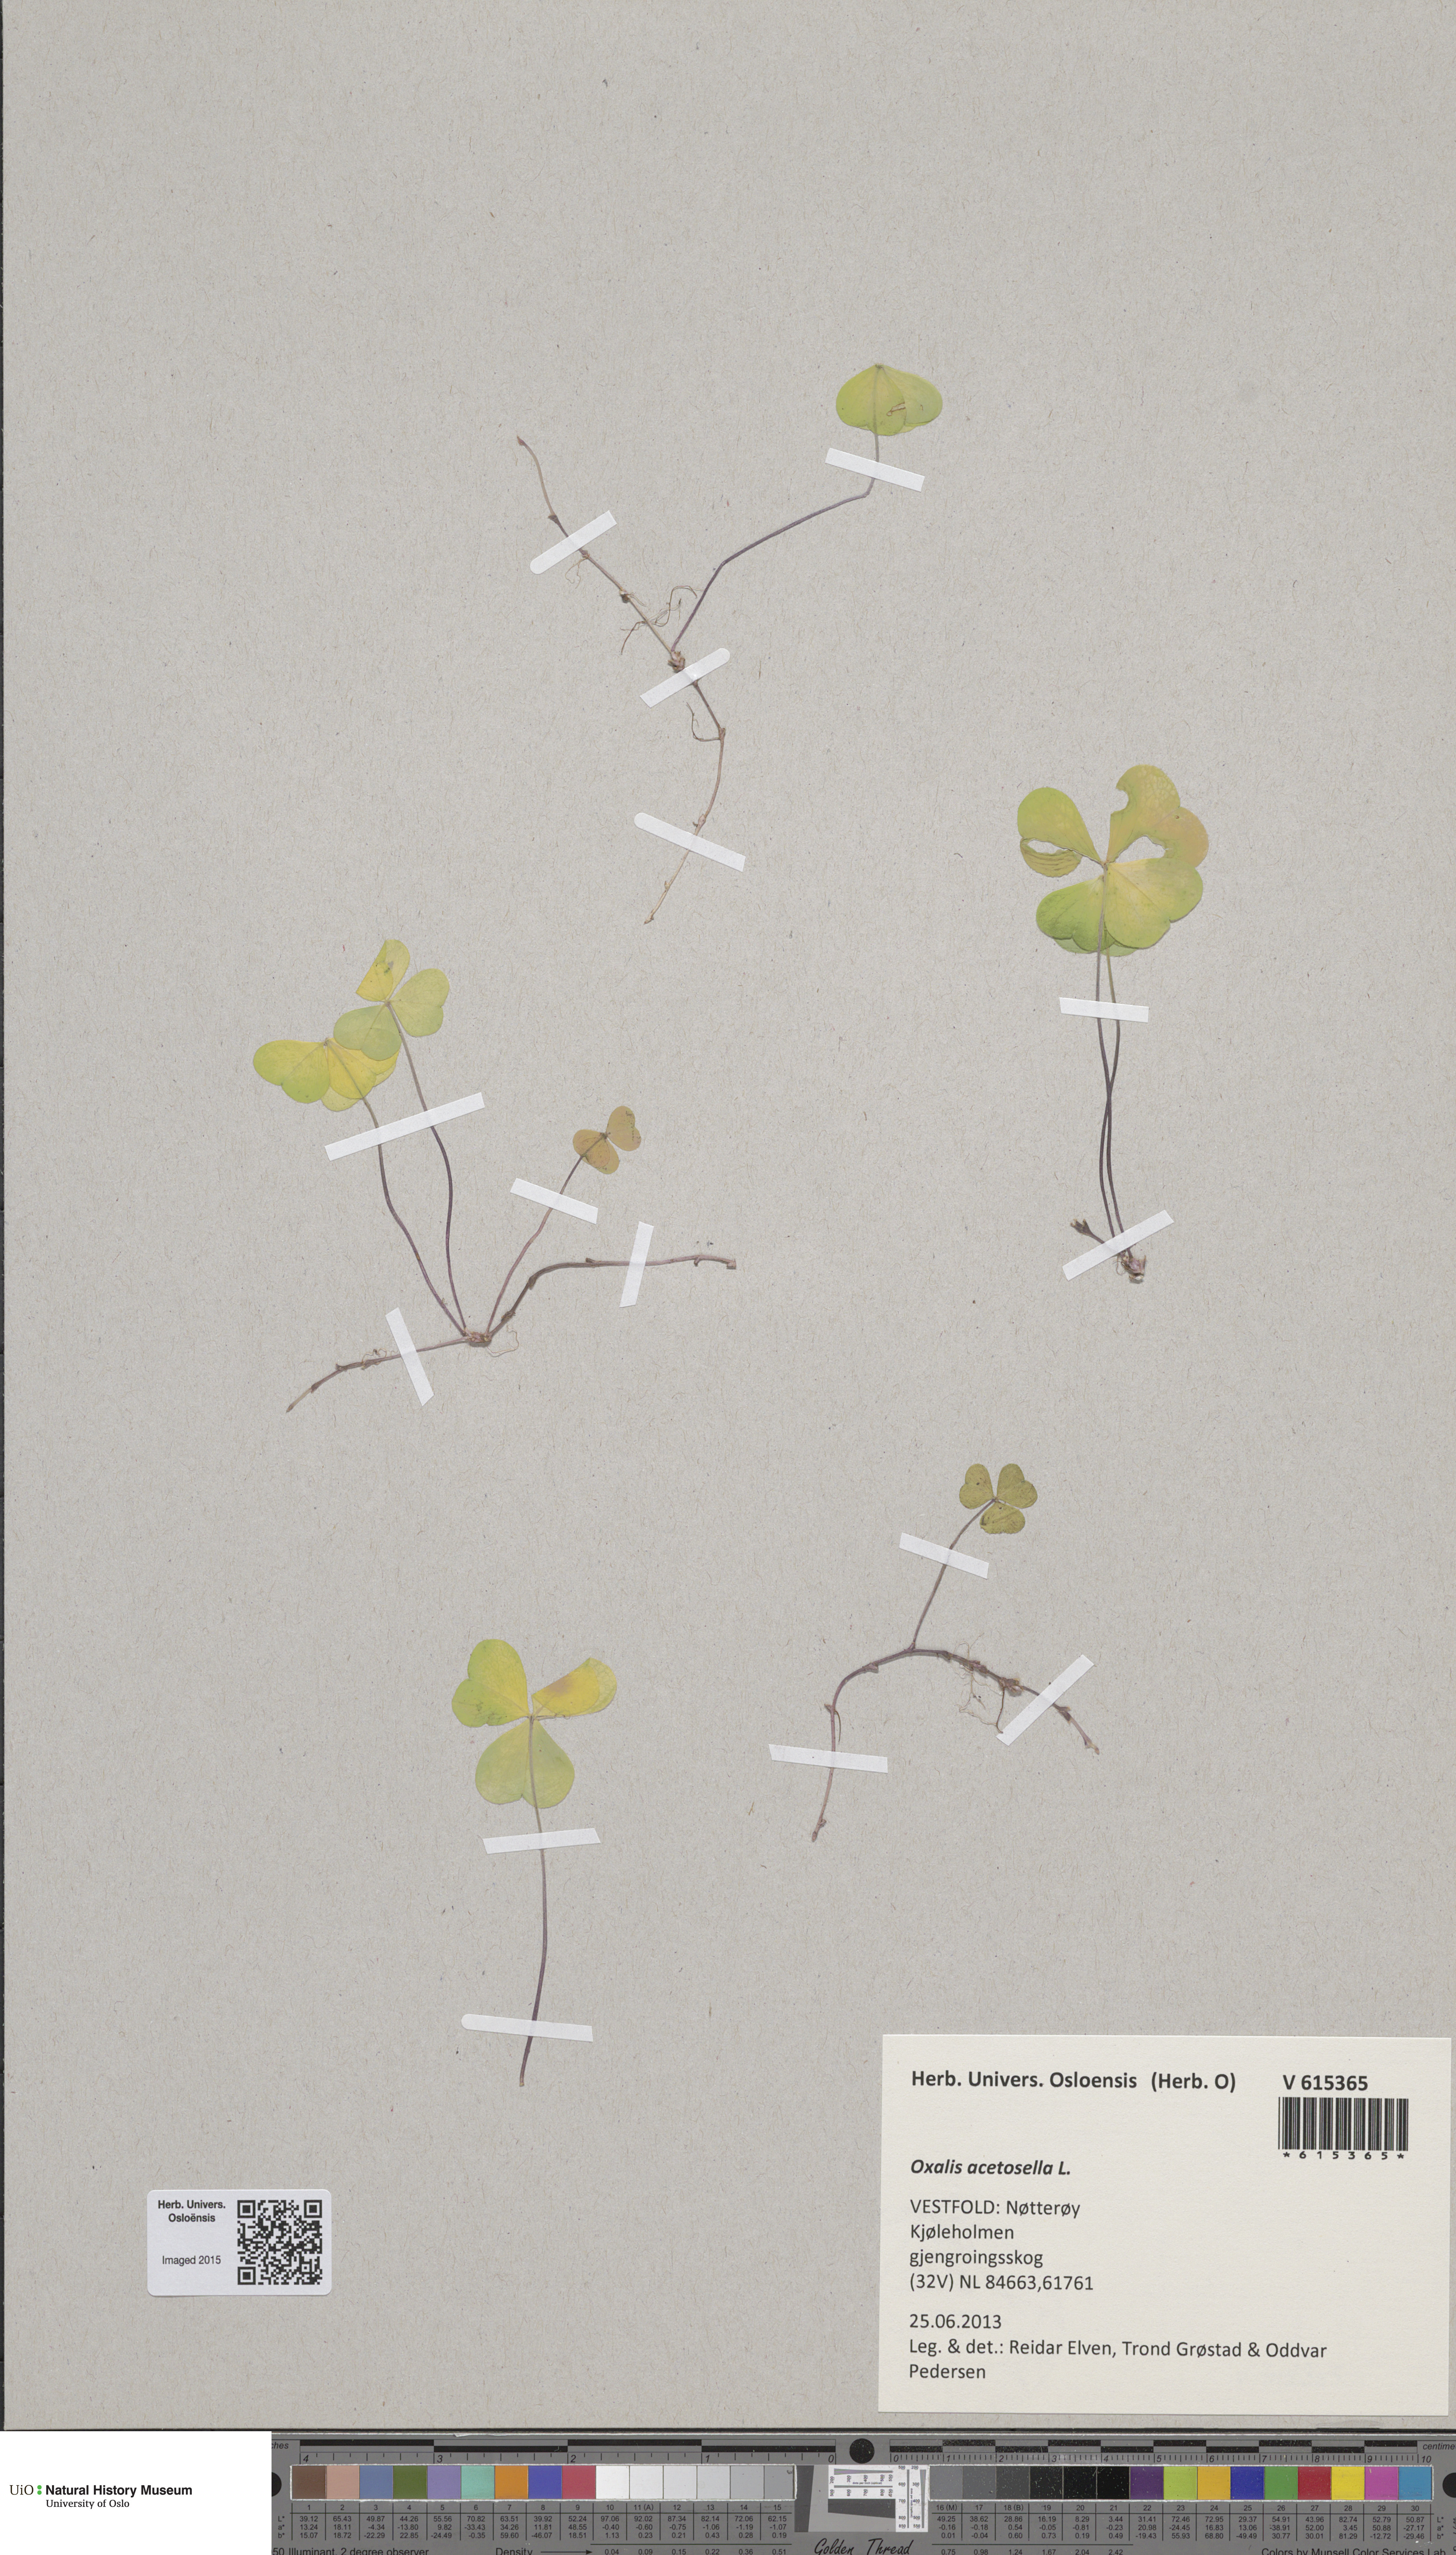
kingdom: Plantae
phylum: Tracheophyta
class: Magnoliopsida
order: Oxalidales
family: Oxalidaceae
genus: Oxalis
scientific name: Oxalis acetosella
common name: Wood-sorrel
